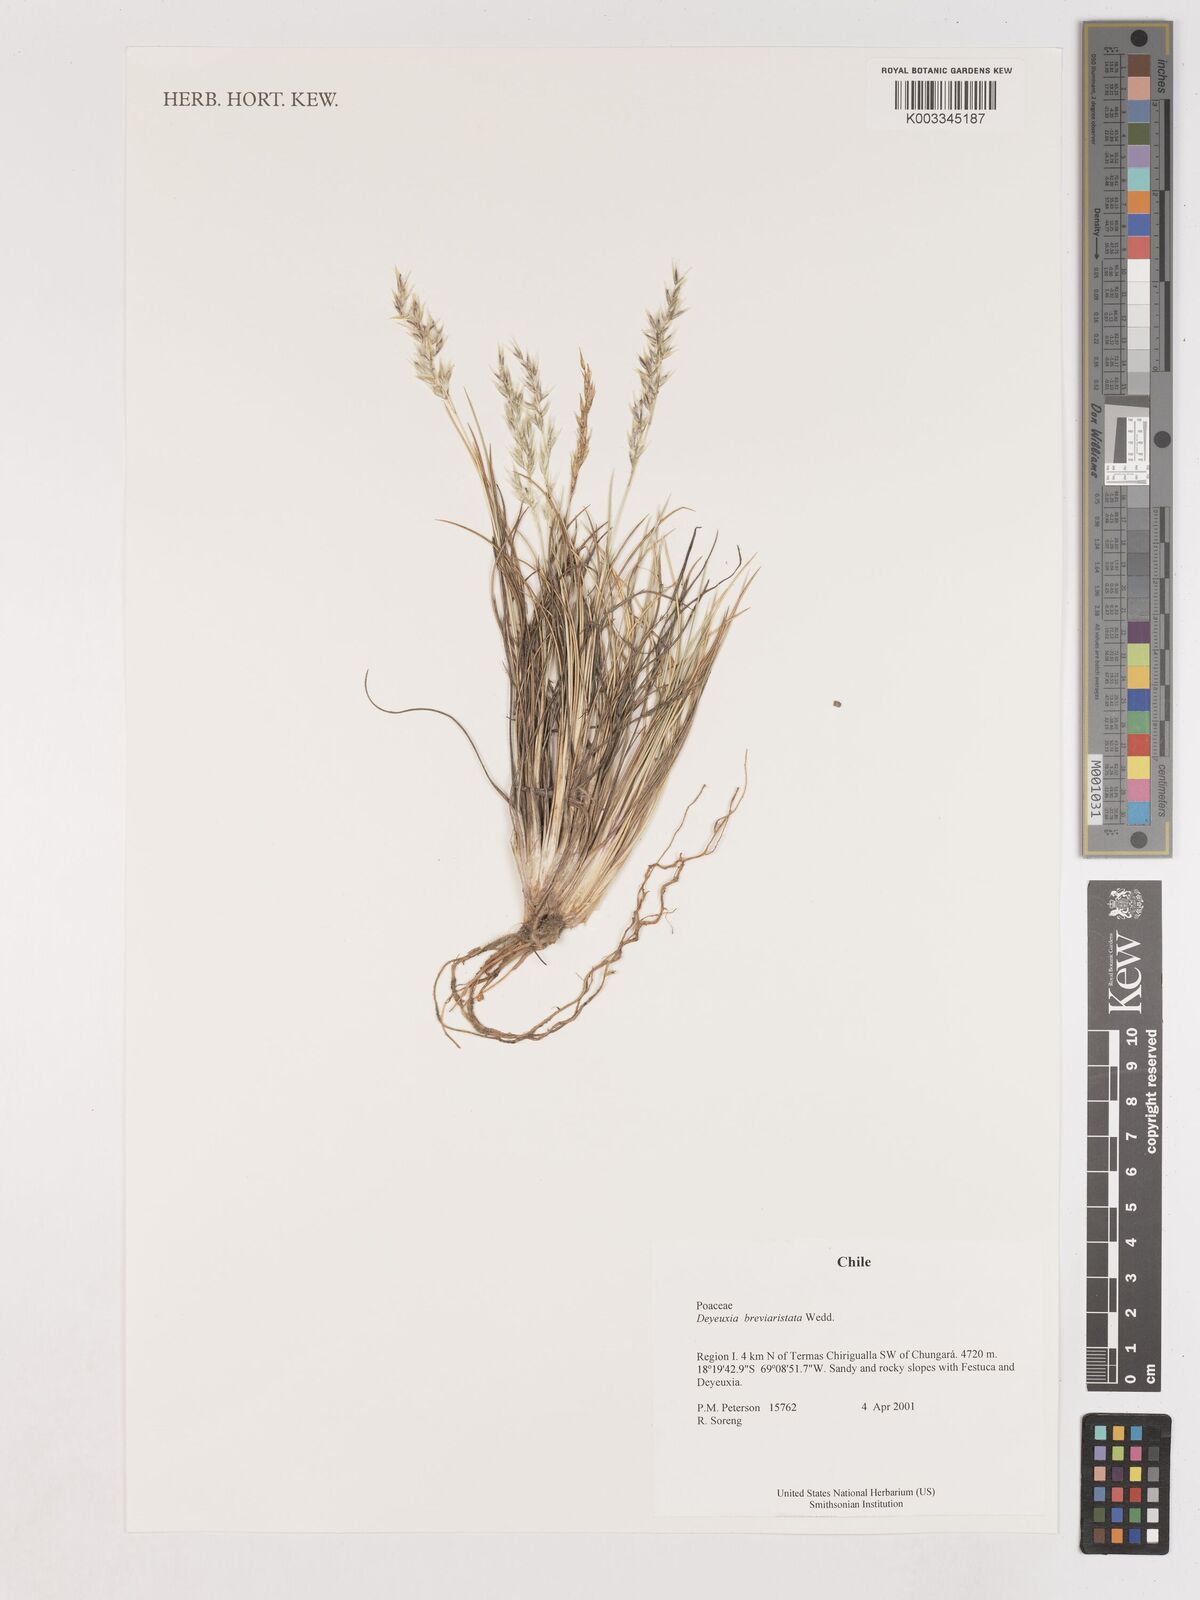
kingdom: Plantae
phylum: Tracheophyta
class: Liliopsida
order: Poales
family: Poaceae
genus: Cinnagrostis
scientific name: Cinnagrostis breviaristata
